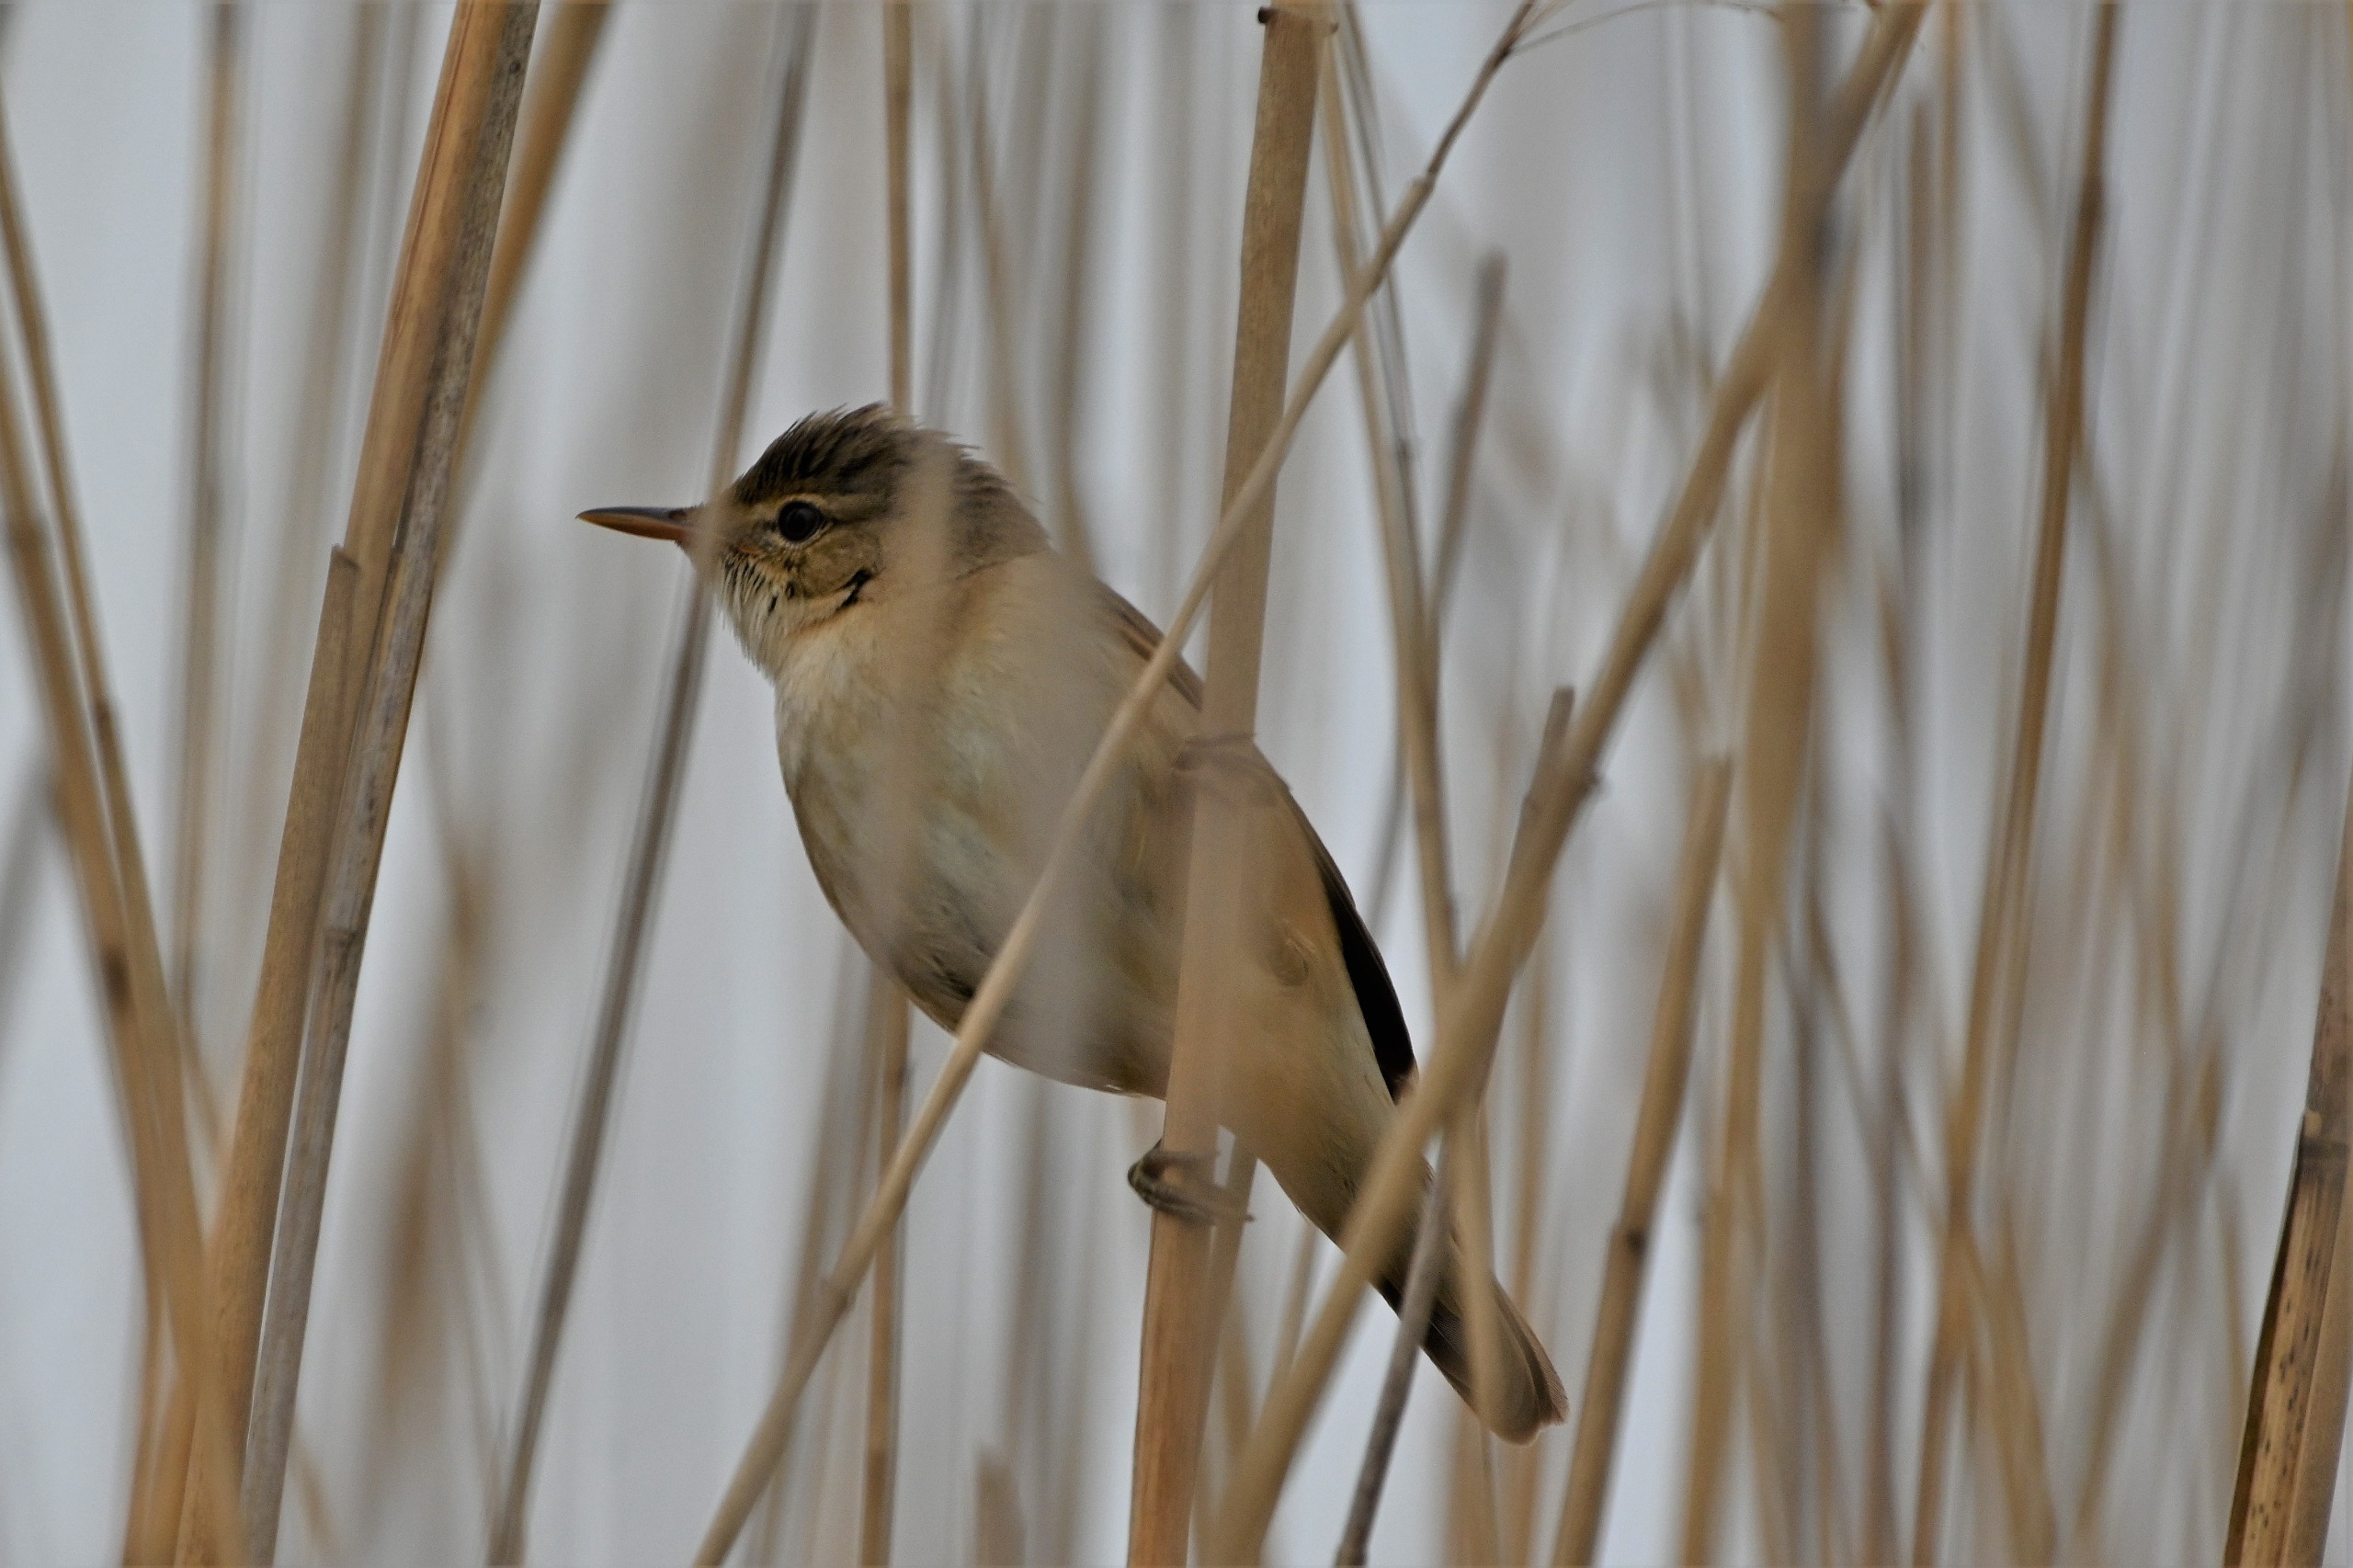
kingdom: Animalia
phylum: Chordata
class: Aves
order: Passeriformes
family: Acrocephalidae
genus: Acrocephalus
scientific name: Acrocephalus scirpaceus
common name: Rørsanger
